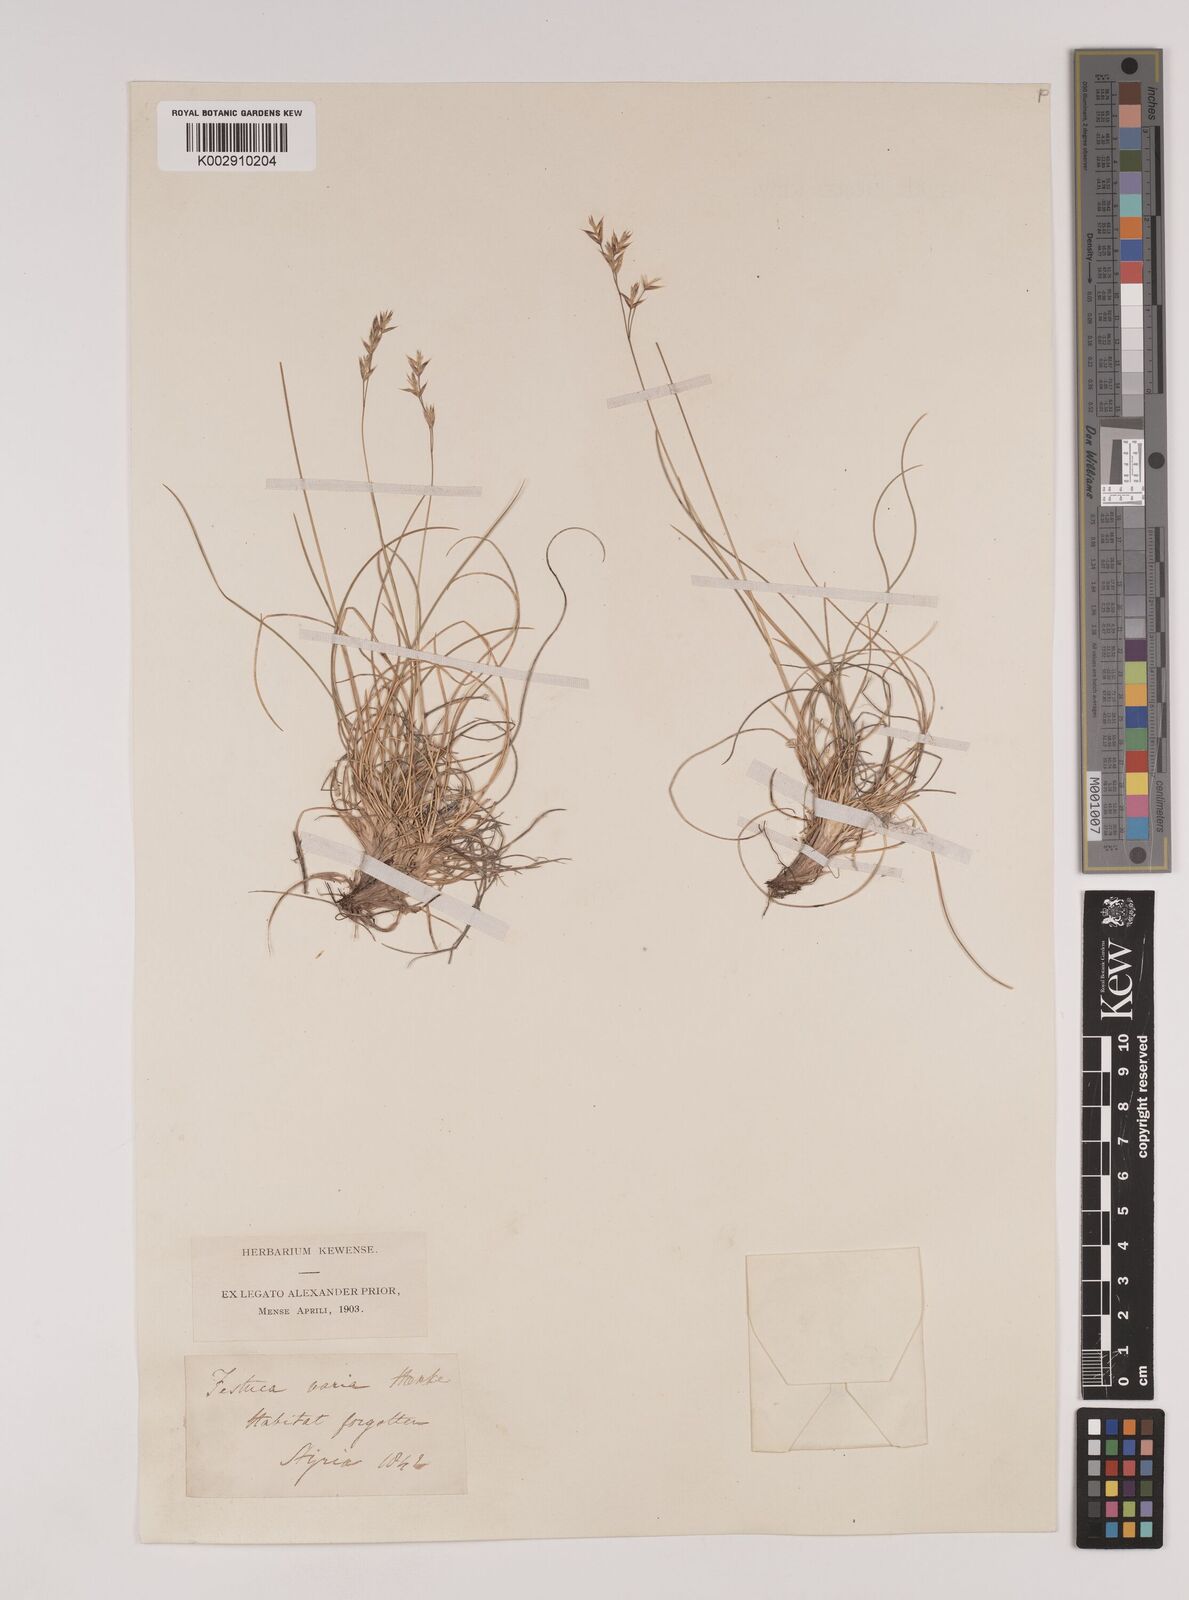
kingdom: Plantae
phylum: Tracheophyta
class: Liliopsida
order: Poales
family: Poaceae
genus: Festuca
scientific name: Festuca varia
